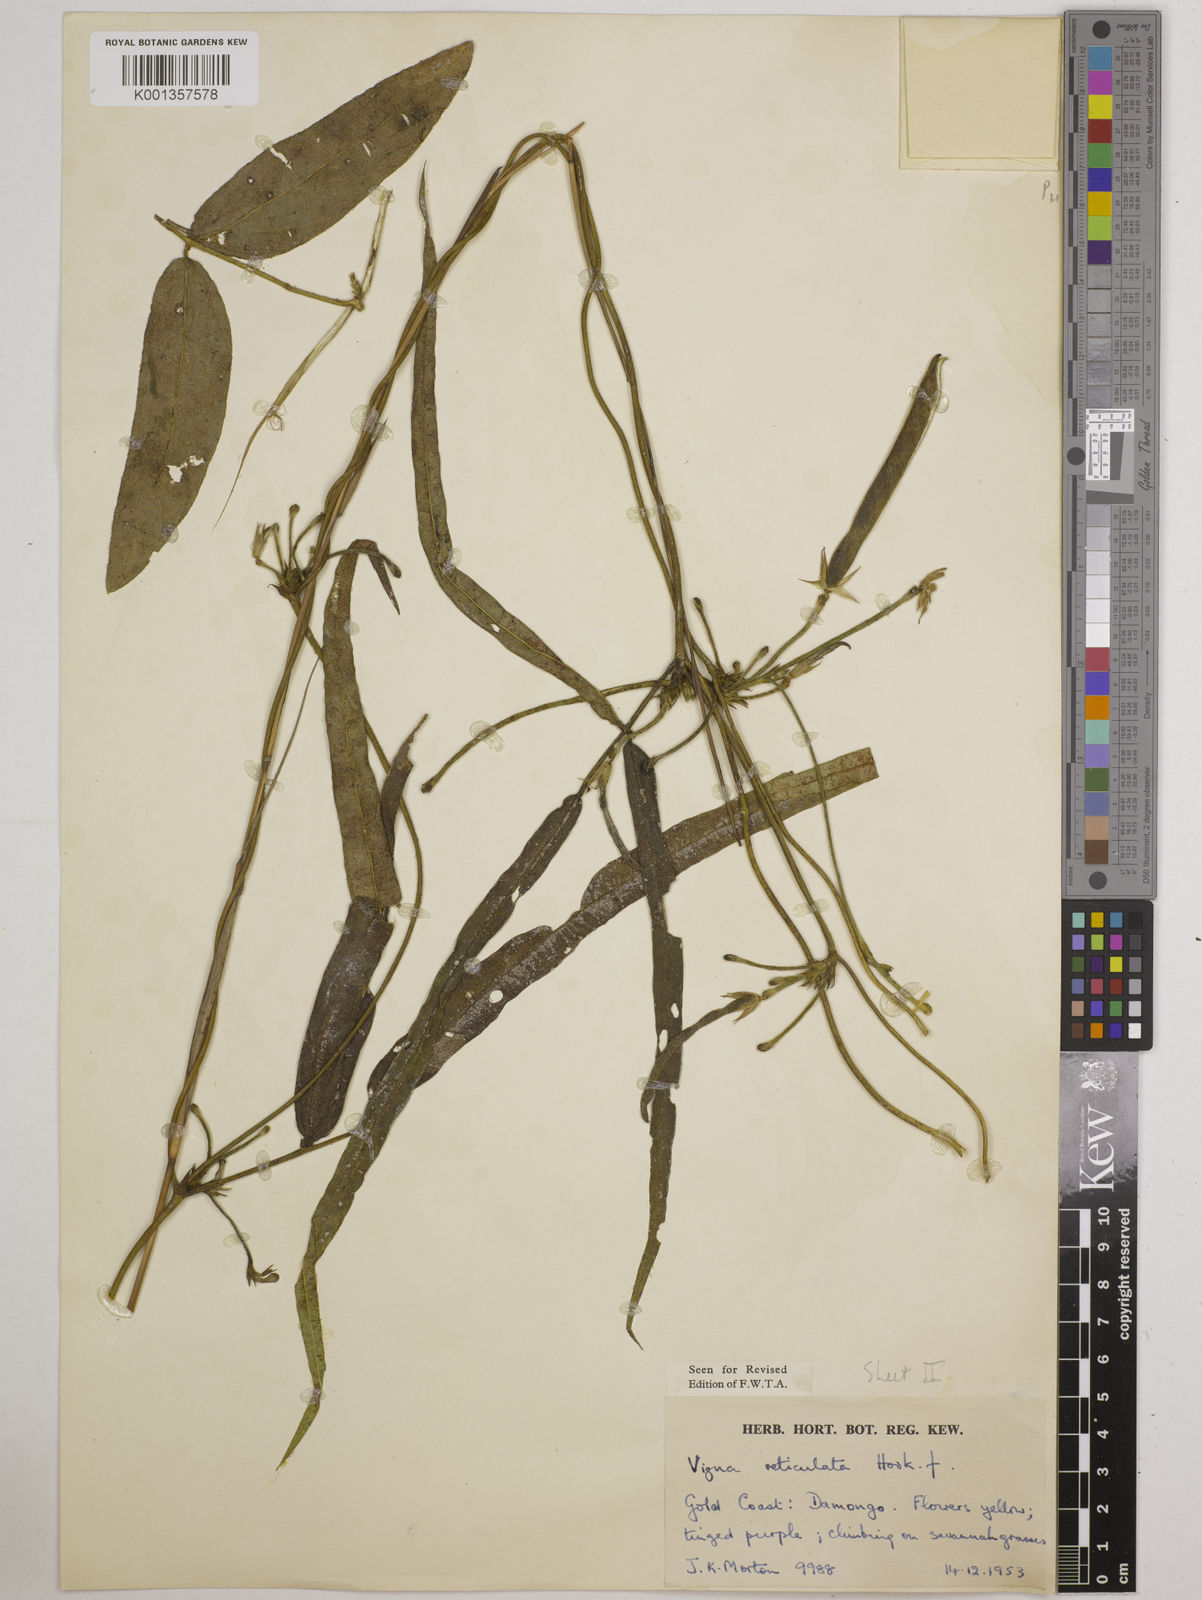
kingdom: Plantae
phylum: Tracheophyta
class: Magnoliopsida
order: Fabales
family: Fabaceae
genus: Vigna
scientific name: Vigna reticulata
